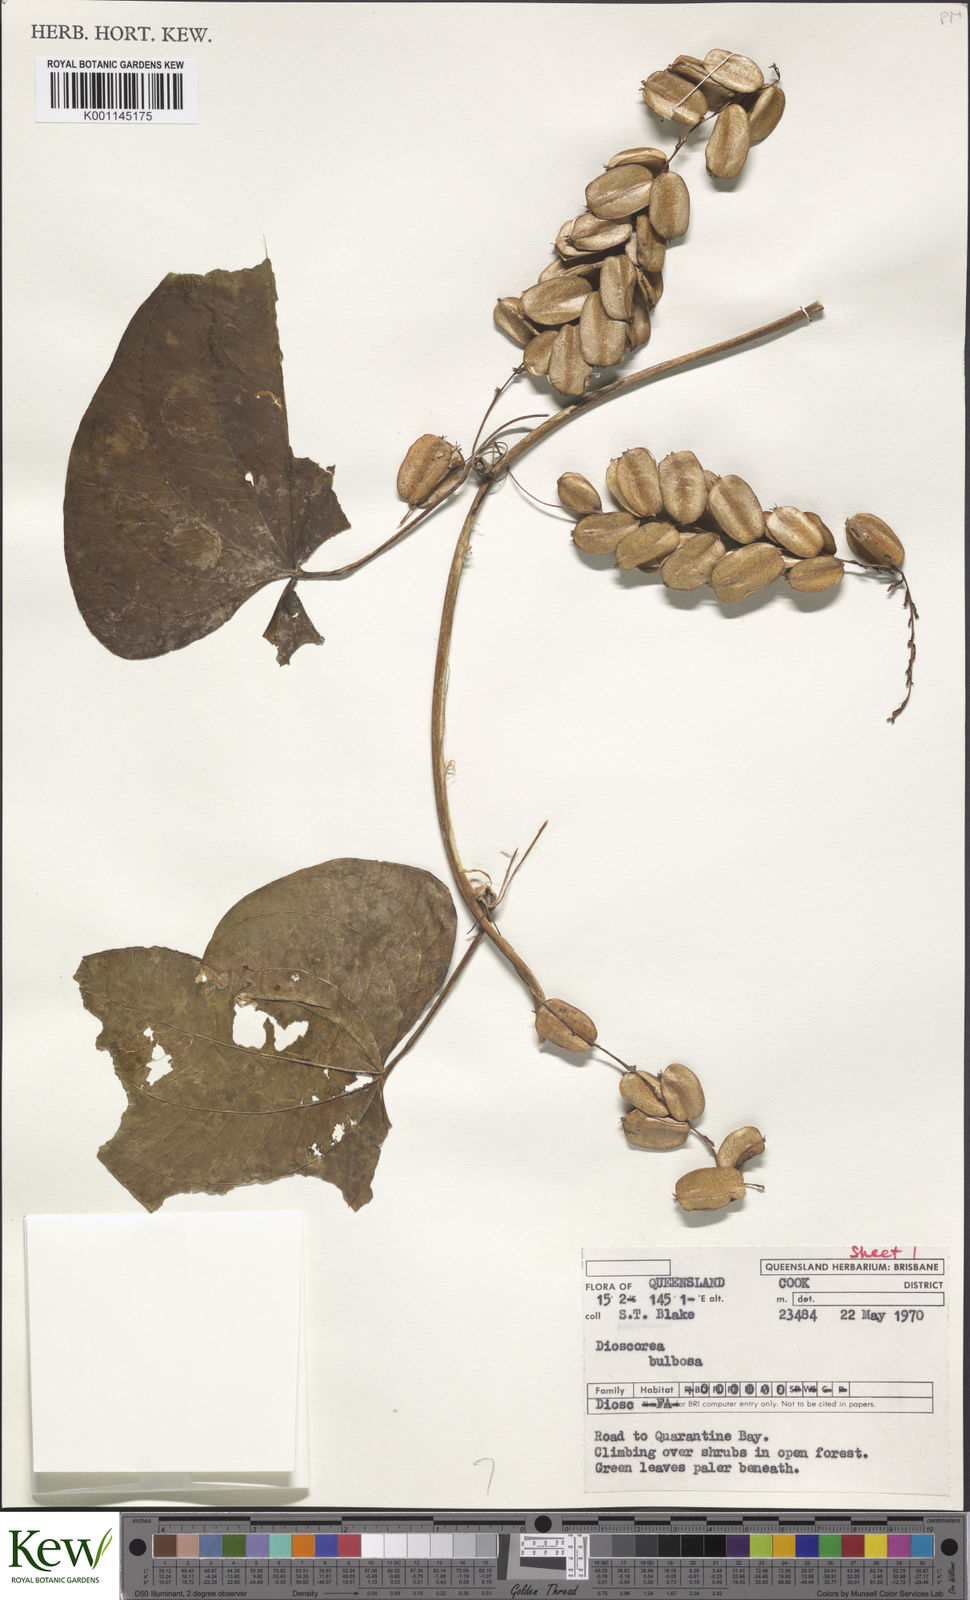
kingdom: Plantae
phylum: Tracheophyta
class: Liliopsida
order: Dioscoreales
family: Dioscoreaceae
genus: Dioscorea
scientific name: Dioscorea
